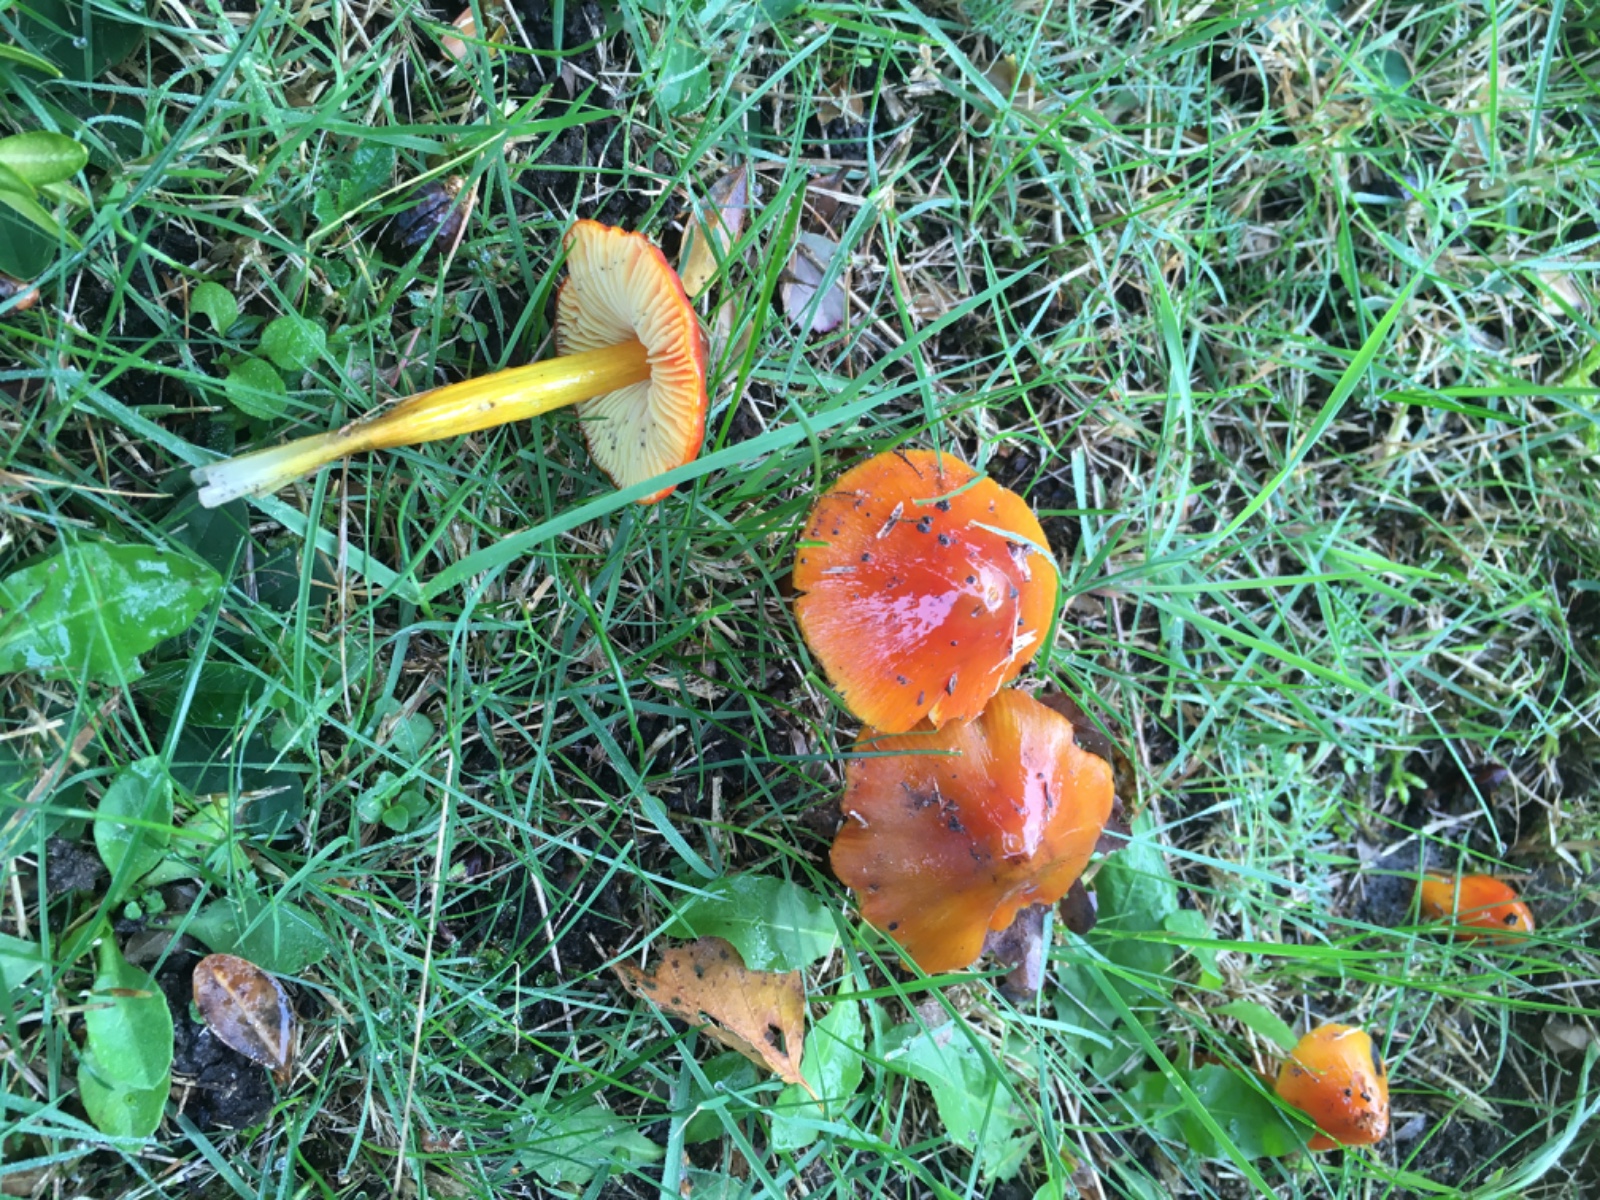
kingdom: Fungi
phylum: Basidiomycota
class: Agaricomycetes
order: Agaricales
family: Hygrophoraceae
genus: Hygrocybe
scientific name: Hygrocybe conica
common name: kegle-vokshat
